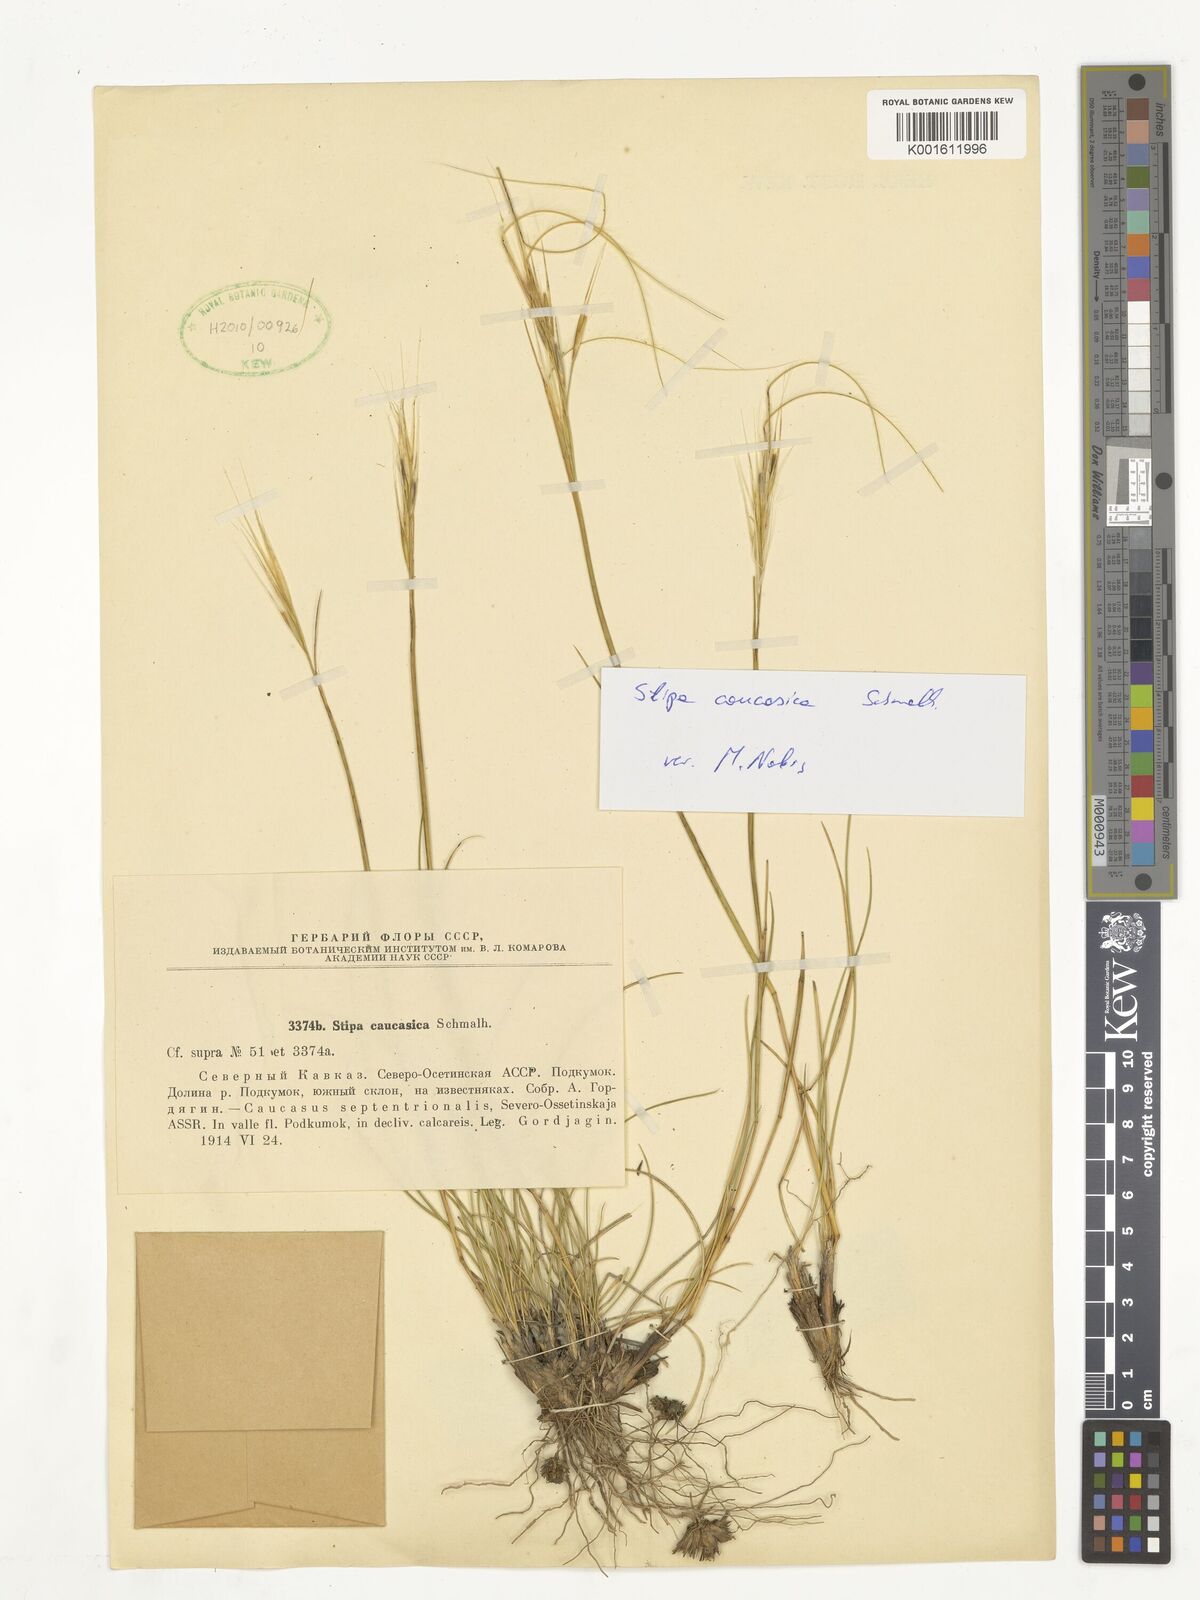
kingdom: Plantae
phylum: Tracheophyta
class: Liliopsida
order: Poales
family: Poaceae
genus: Stipa
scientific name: Stipa caucasica
